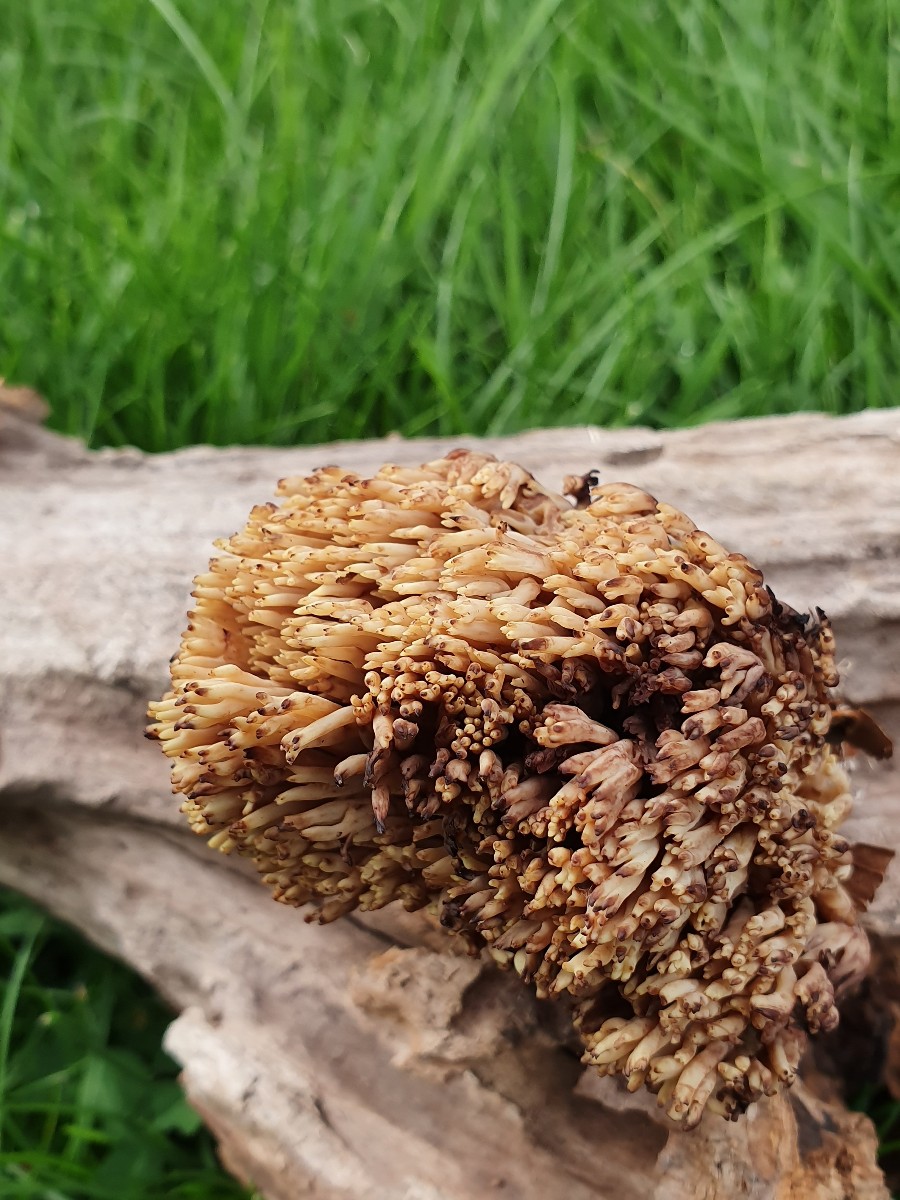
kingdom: Fungi
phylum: Basidiomycota
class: Agaricomycetes
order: Gomphales
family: Gomphaceae
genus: Ramaria
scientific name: Ramaria stricta
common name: rank koralsvamp
